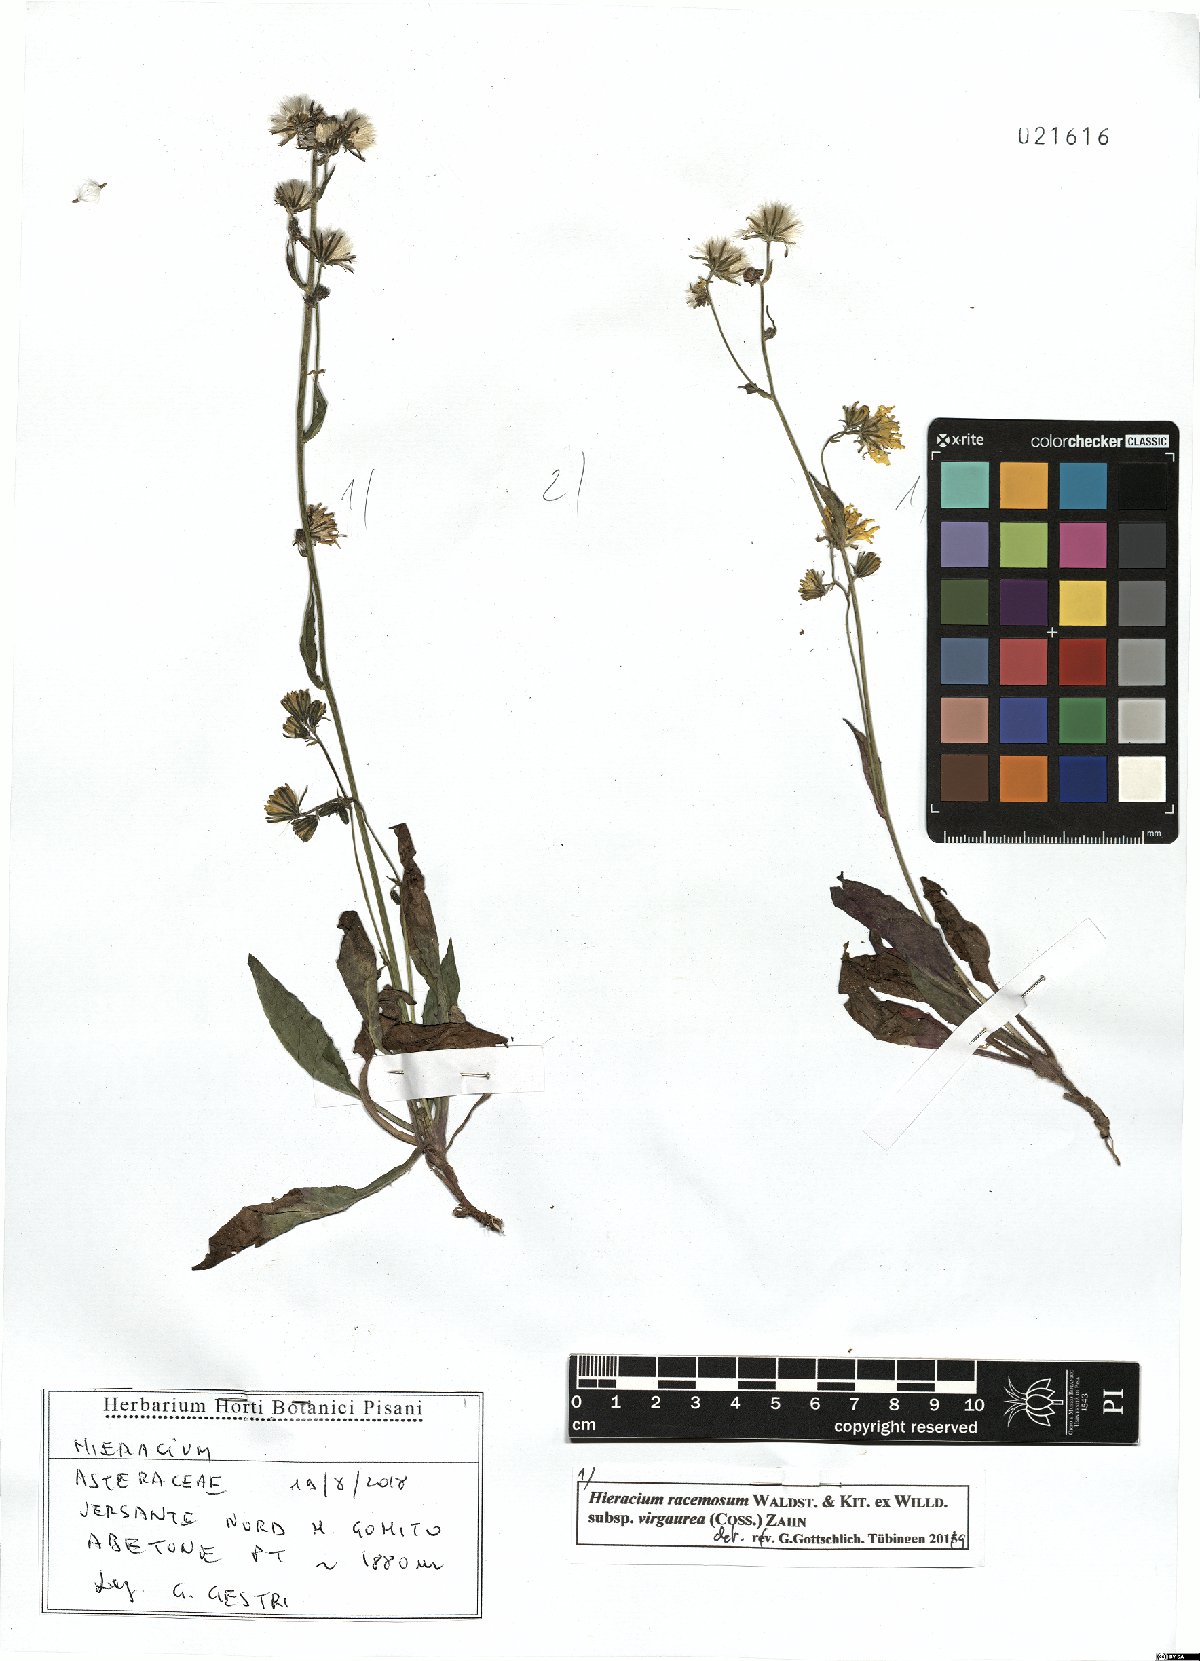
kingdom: Plantae
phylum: Tracheophyta
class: Magnoliopsida
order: Asterales
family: Asteraceae
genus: Hieracium
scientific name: Hieracium racemosum
